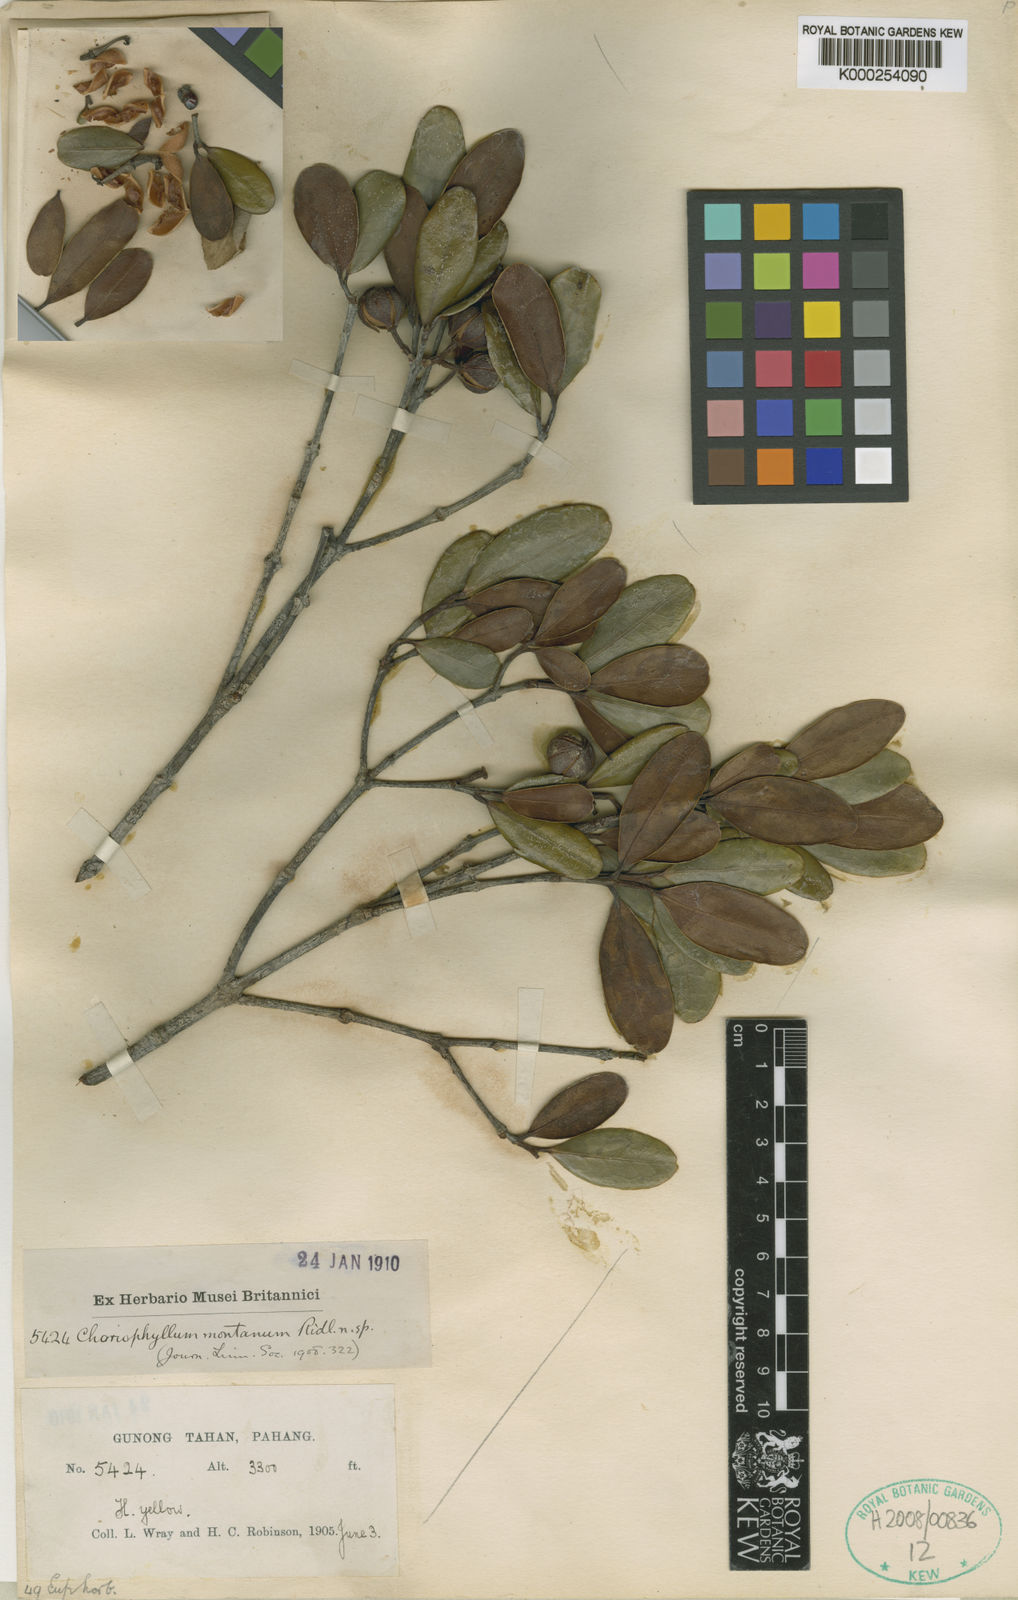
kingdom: Plantae
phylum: Tracheophyta
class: Magnoliopsida
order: Malpighiales
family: Picrodendraceae
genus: Austrobuxus
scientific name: Austrobuxus nitidus
